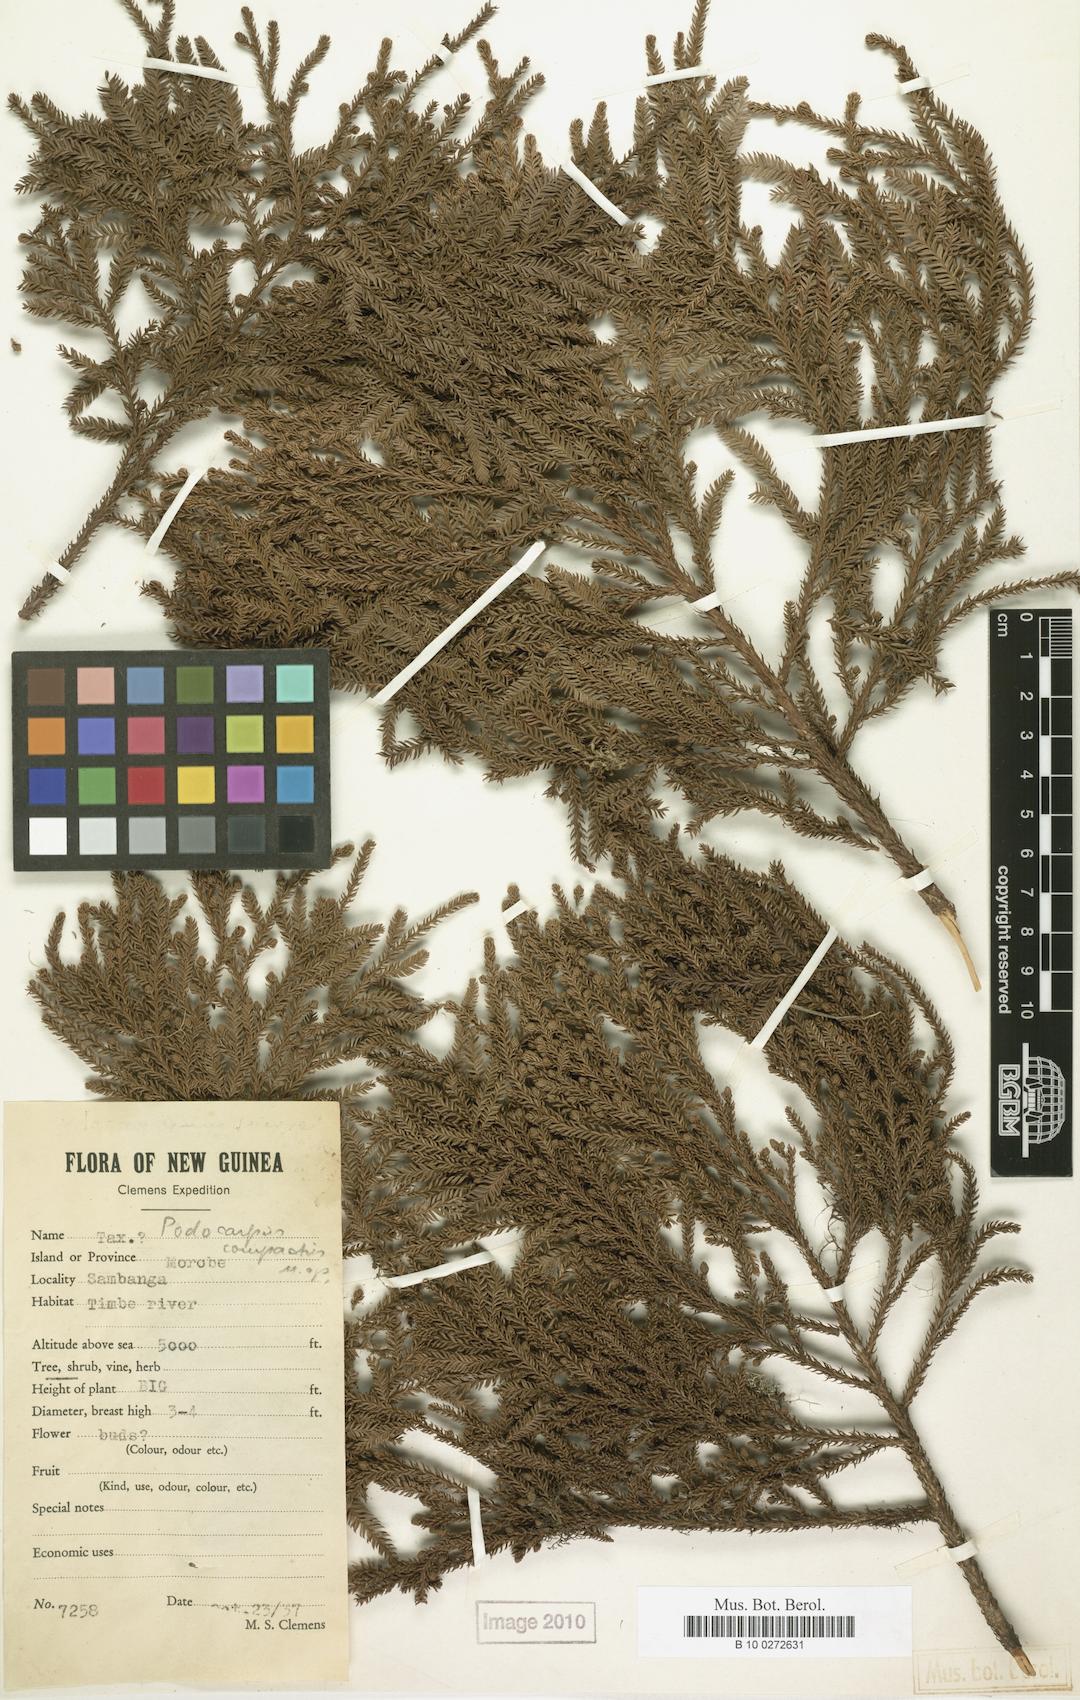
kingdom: Plantae
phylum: Tracheophyta
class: Pinopsida
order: Pinales
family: Podocarpaceae
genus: Dacrycarpus
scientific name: Dacrycarpus compactus
